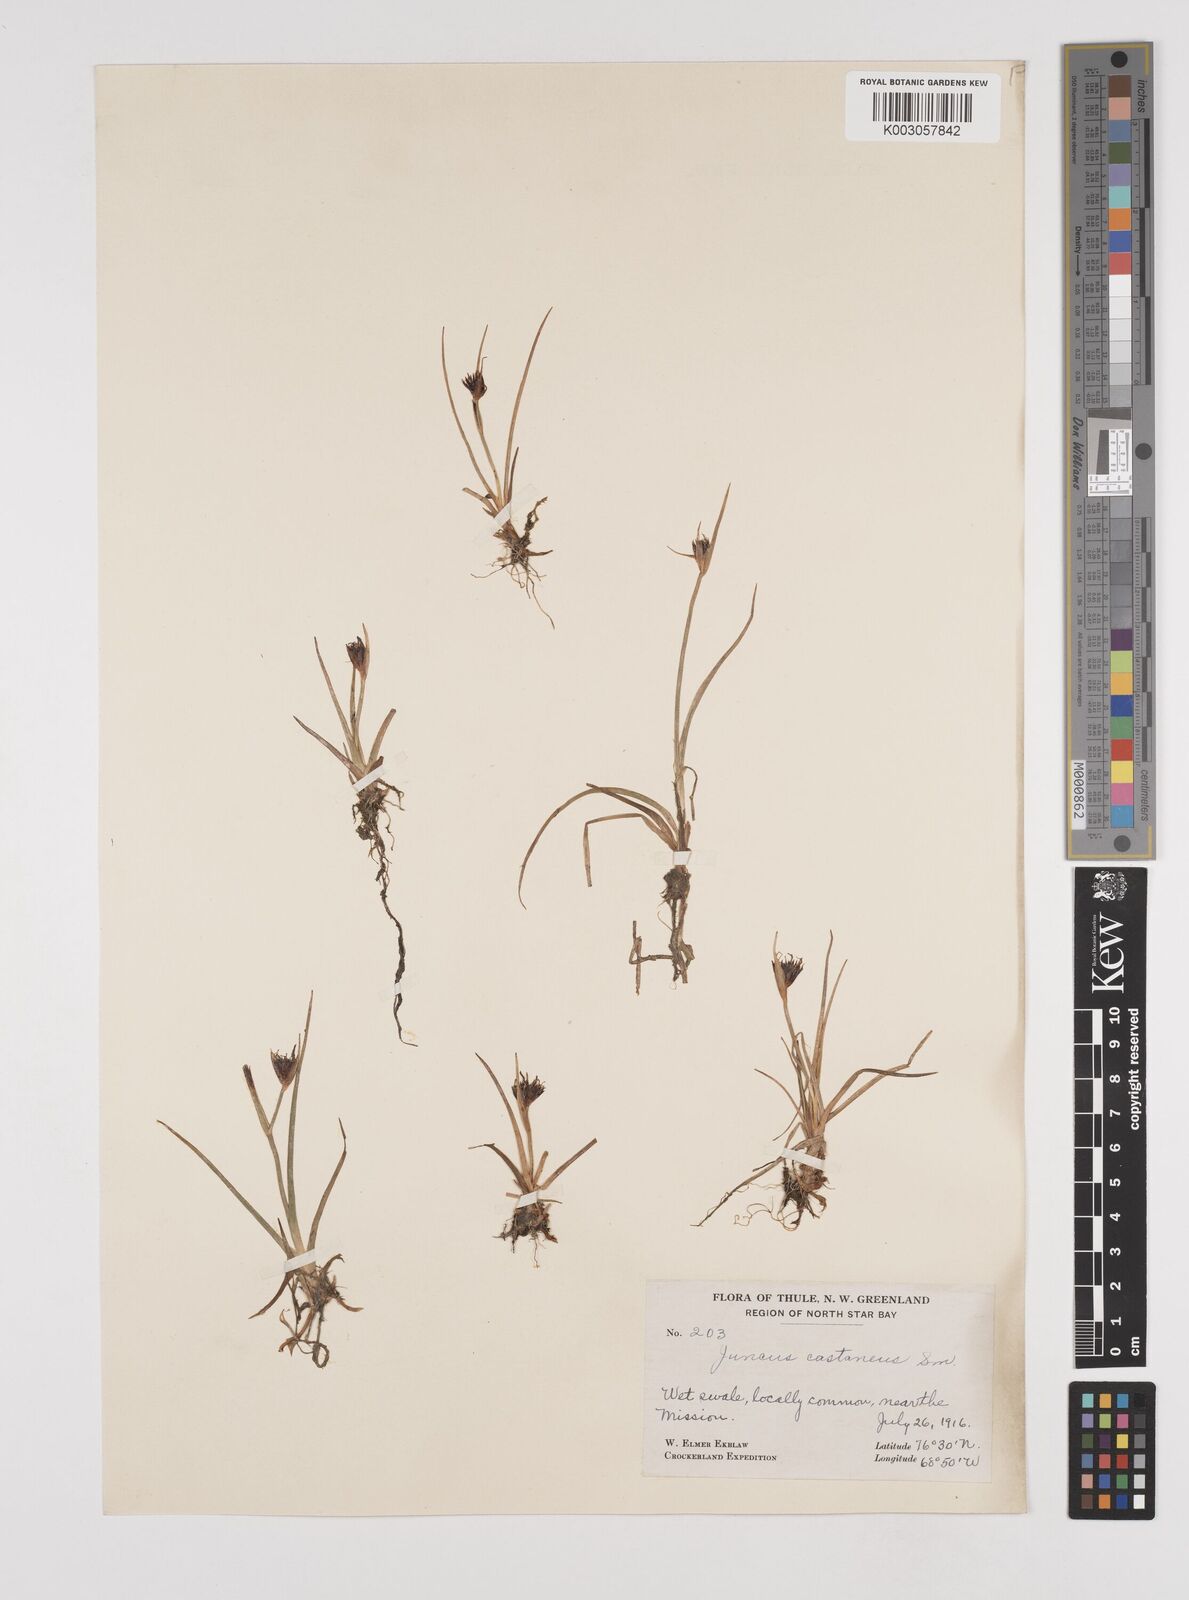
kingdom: Plantae
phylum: Tracheophyta
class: Liliopsida
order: Poales
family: Juncaceae
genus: Juncus
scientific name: Juncus castaneus
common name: Chestnut rush
